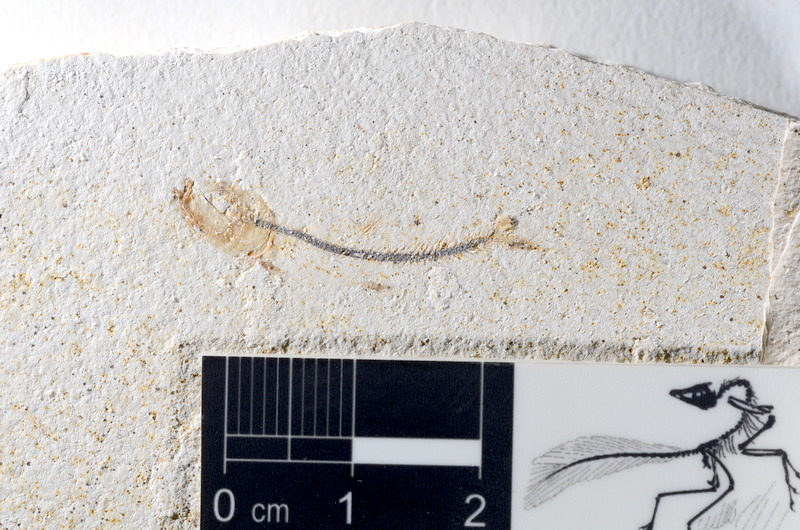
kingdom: Animalia
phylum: Chordata
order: Salmoniformes
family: Orthogonikleithridae
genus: Orthogonikleithrus
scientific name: Orthogonikleithrus hoelli
